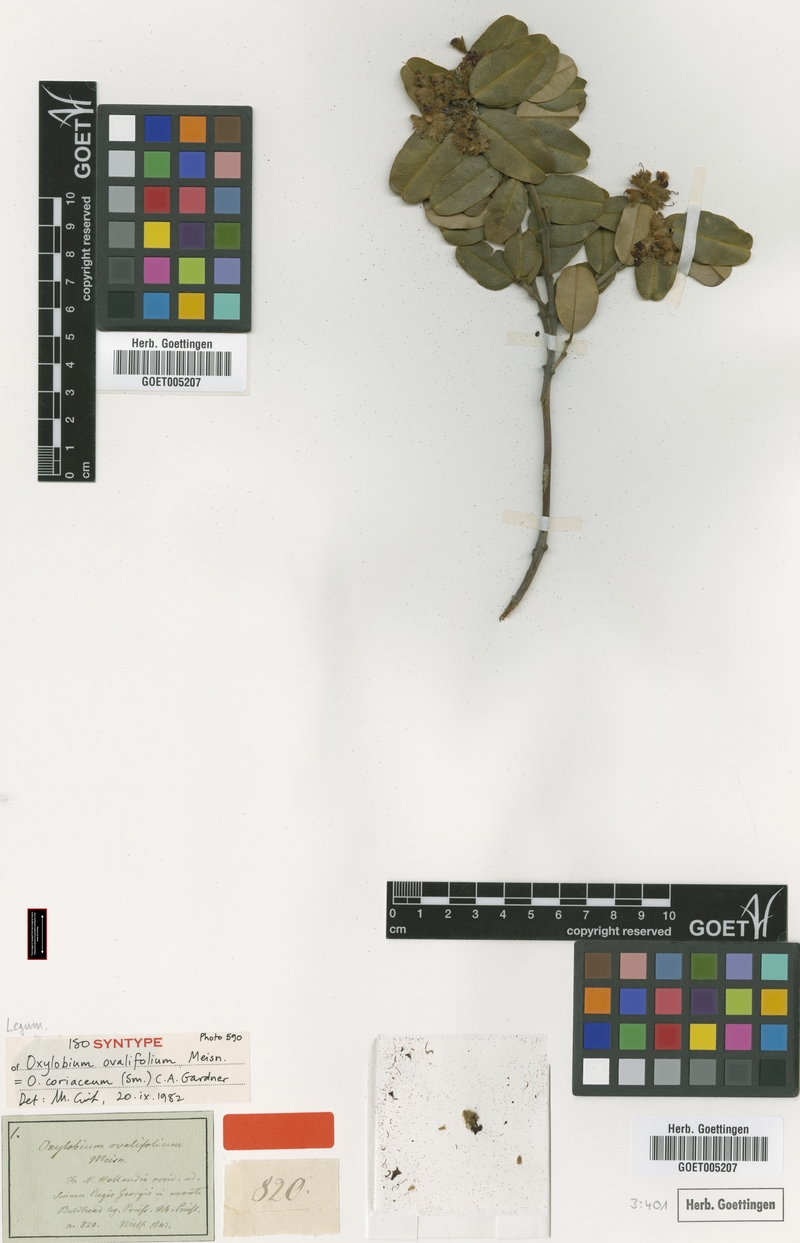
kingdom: Plantae
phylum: Tracheophyta
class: Magnoliopsida
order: Fabales
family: Fabaceae
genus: Gastrolobium
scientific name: Gastrolobium coriaceum
